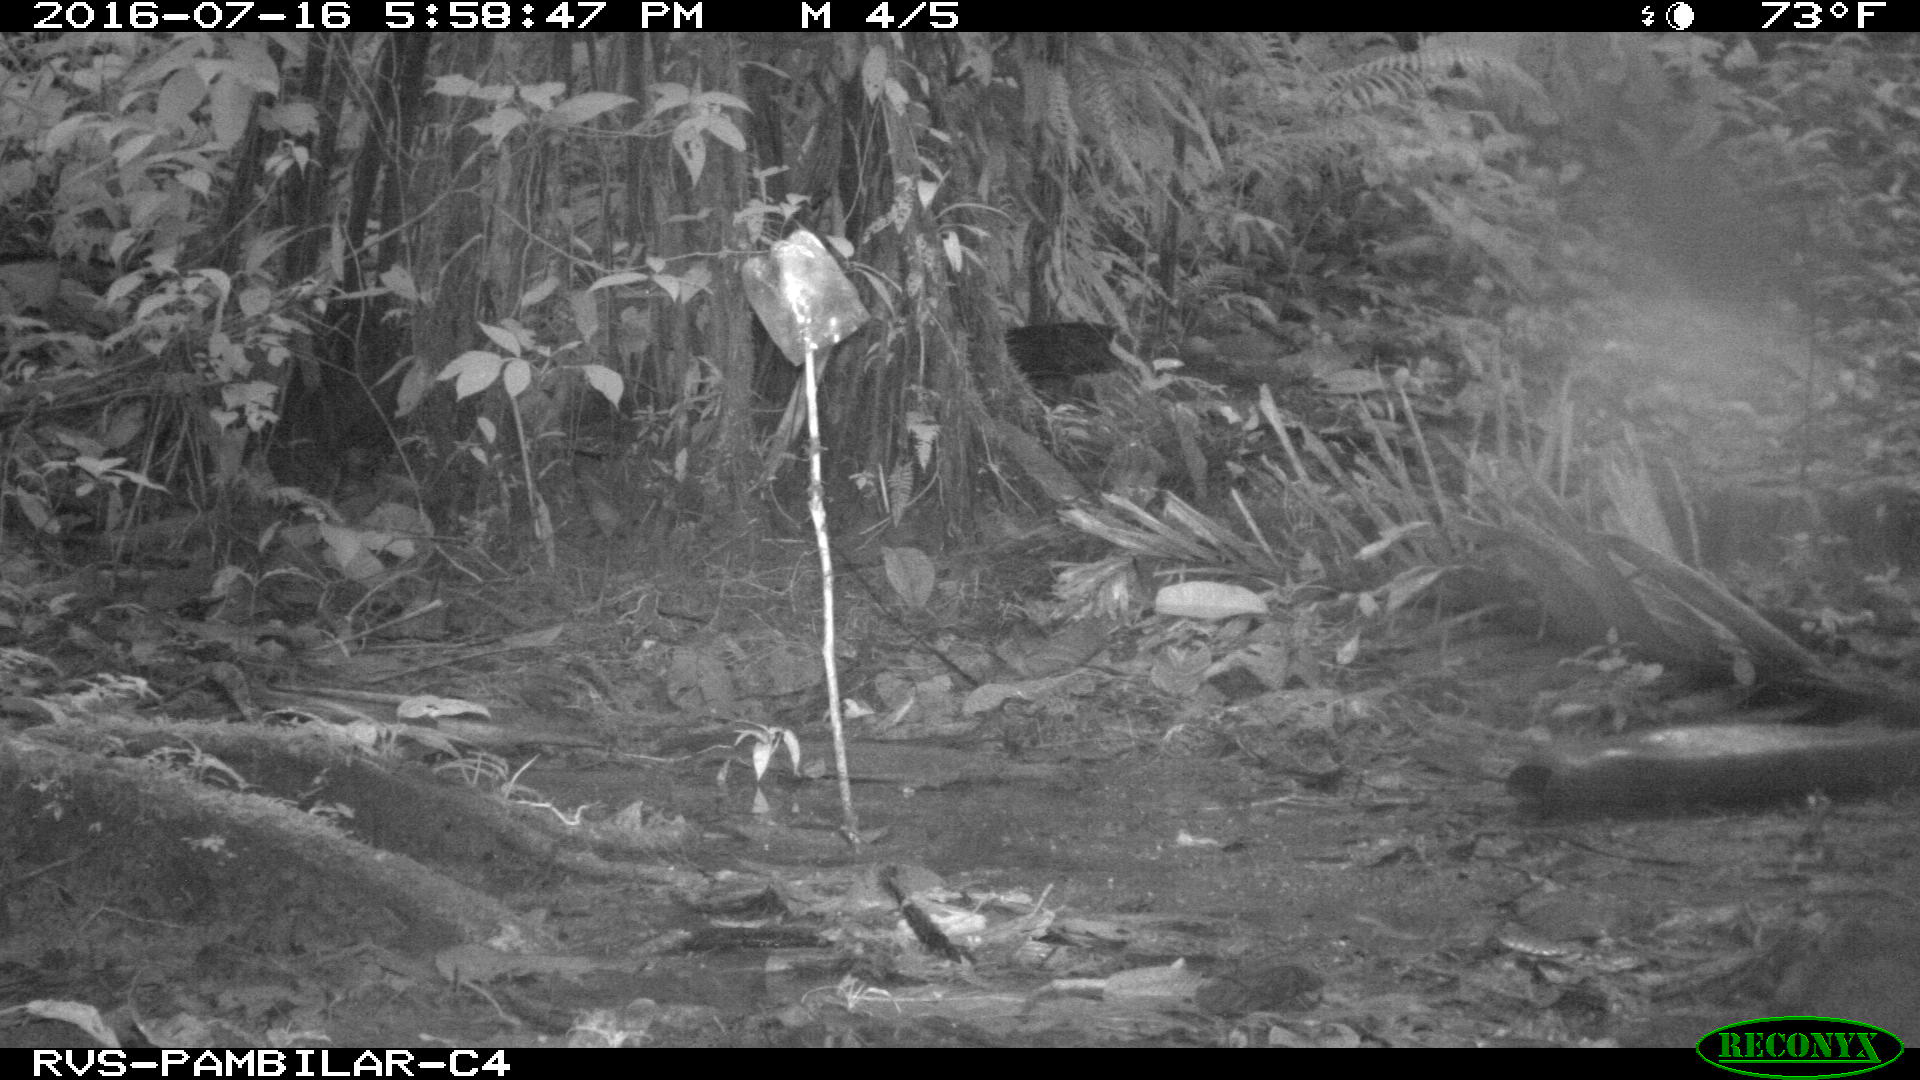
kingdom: Animalia
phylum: Chordata
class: Mammalia
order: Rodentia
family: Dasyproctidae
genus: Dasyprocta
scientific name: Dasyprocta punctata
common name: Central american agouti
